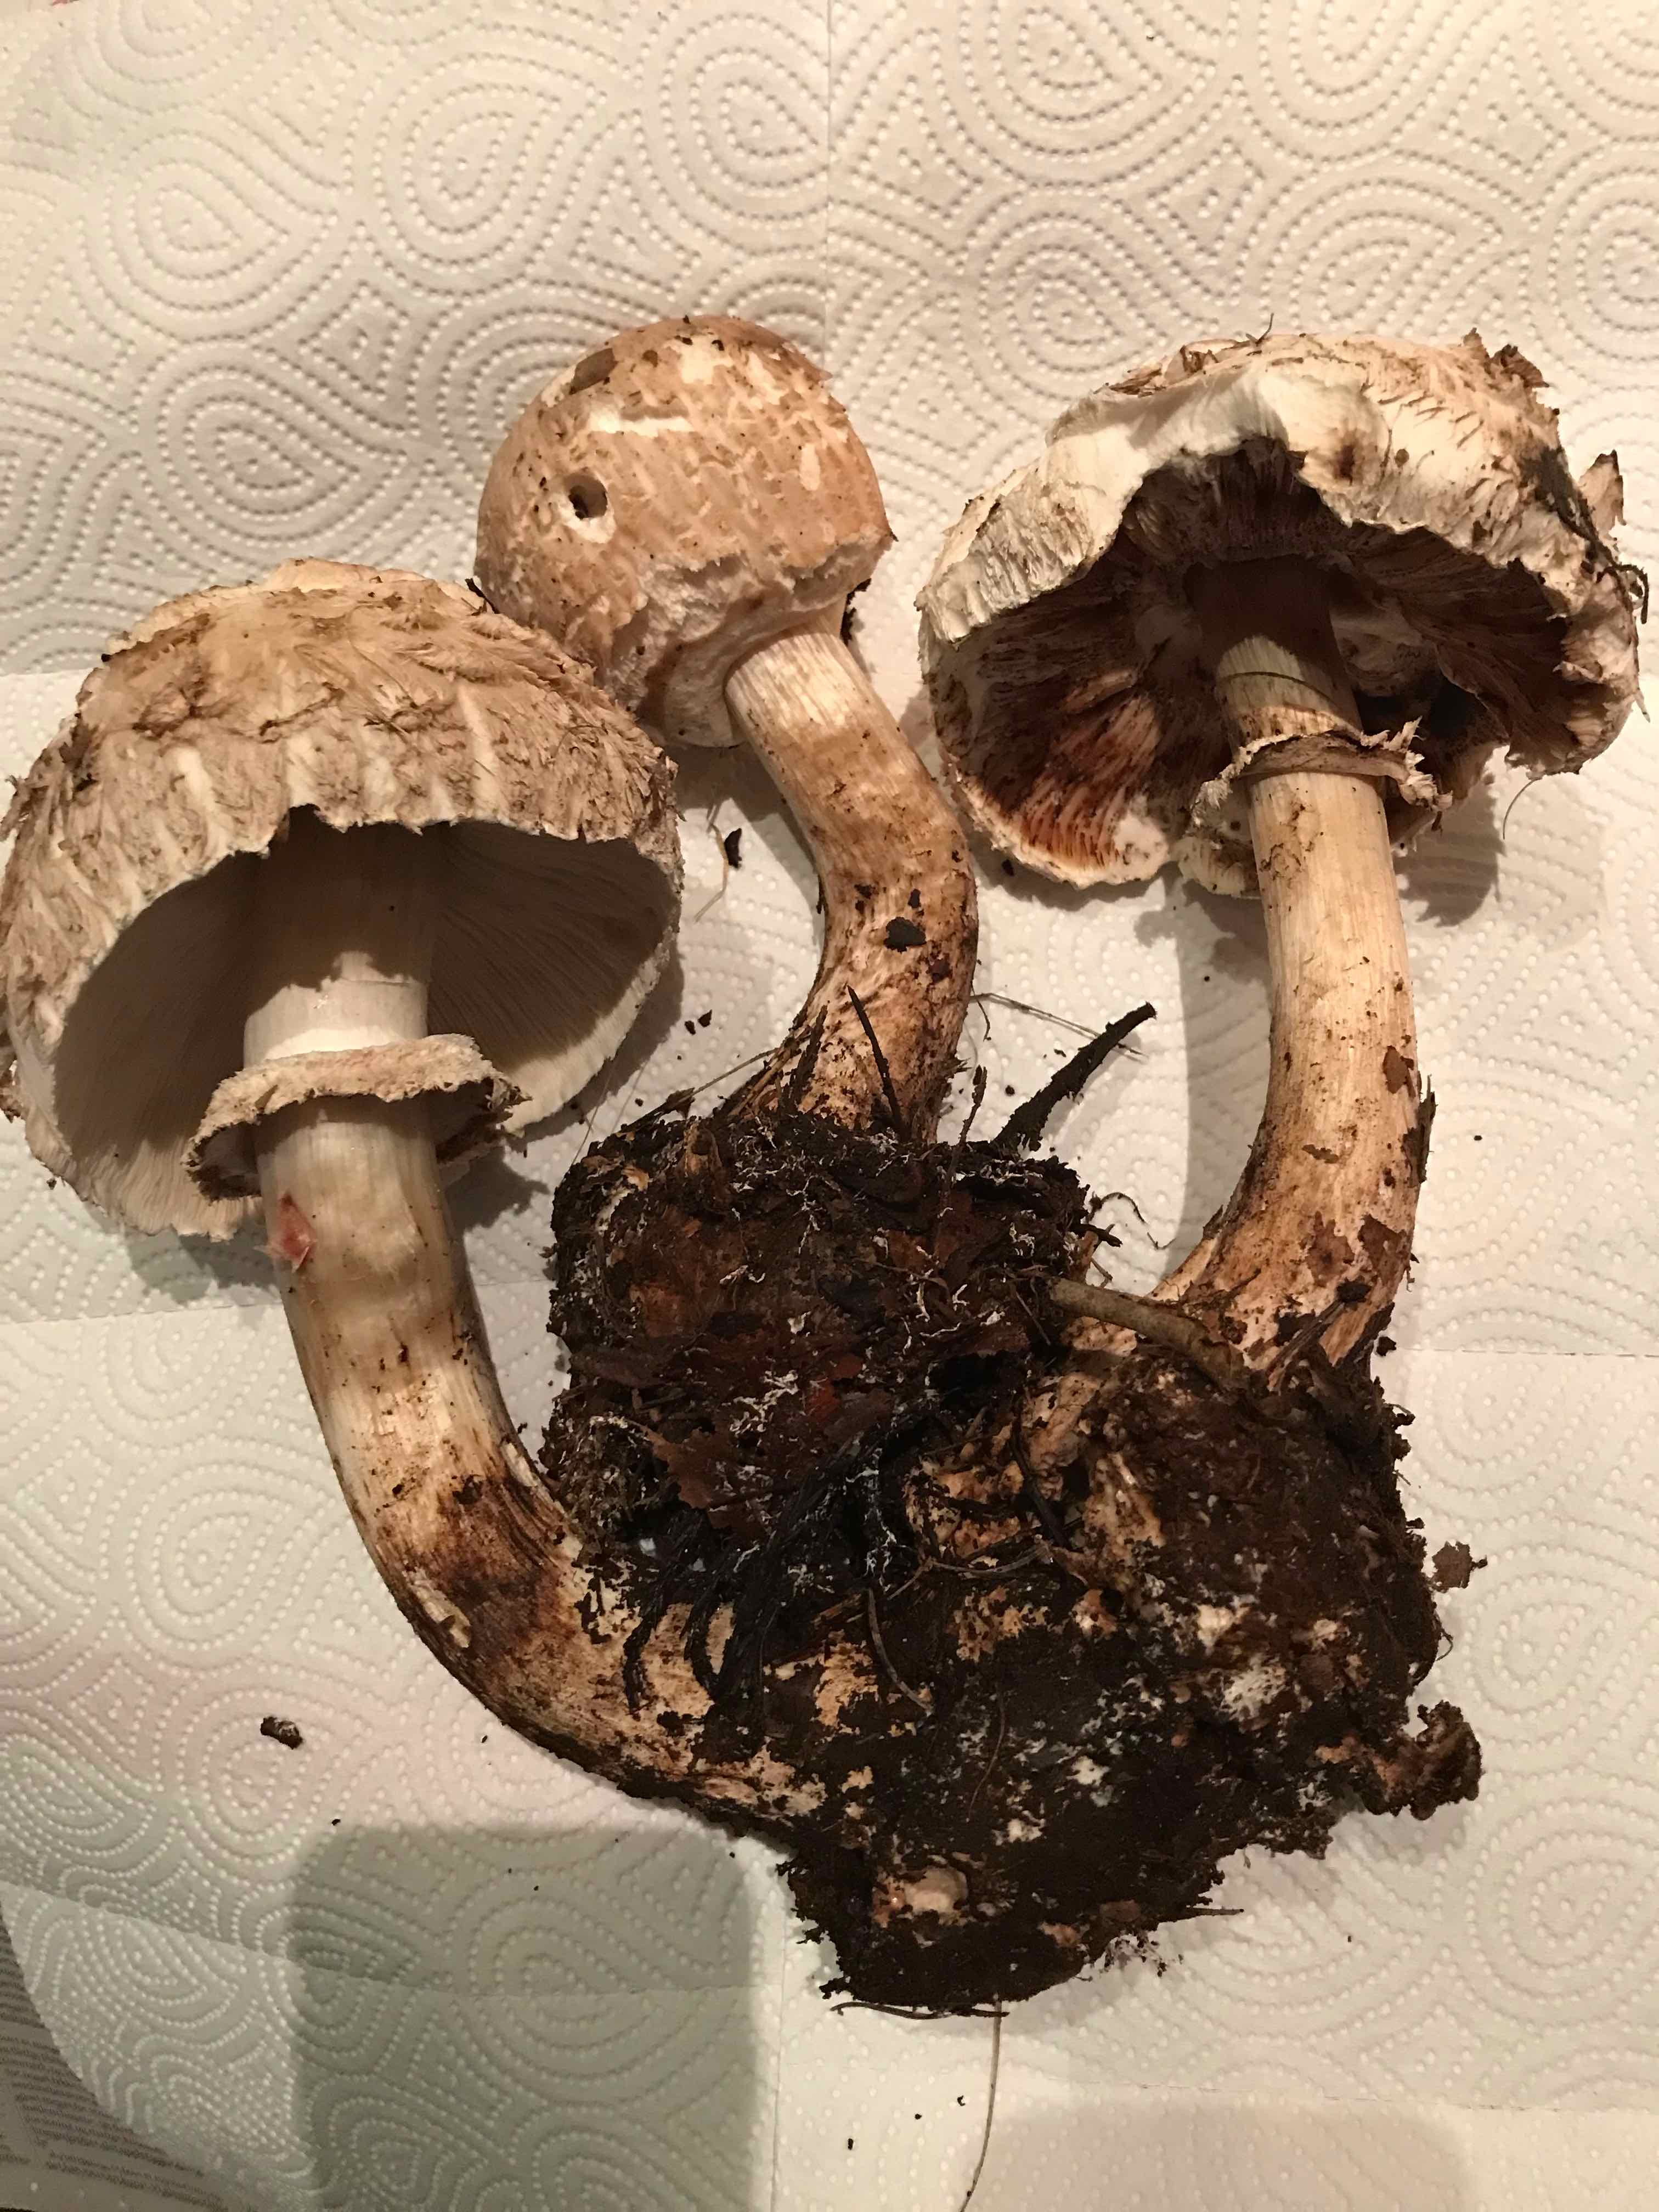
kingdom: Fungi
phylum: Basidiomycota
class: Agaricomycetes
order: Agaricales
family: Agaricaceae
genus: Chlorophyllum
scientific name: Chlorophyllum olivieri
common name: almindelig rabarberhat
